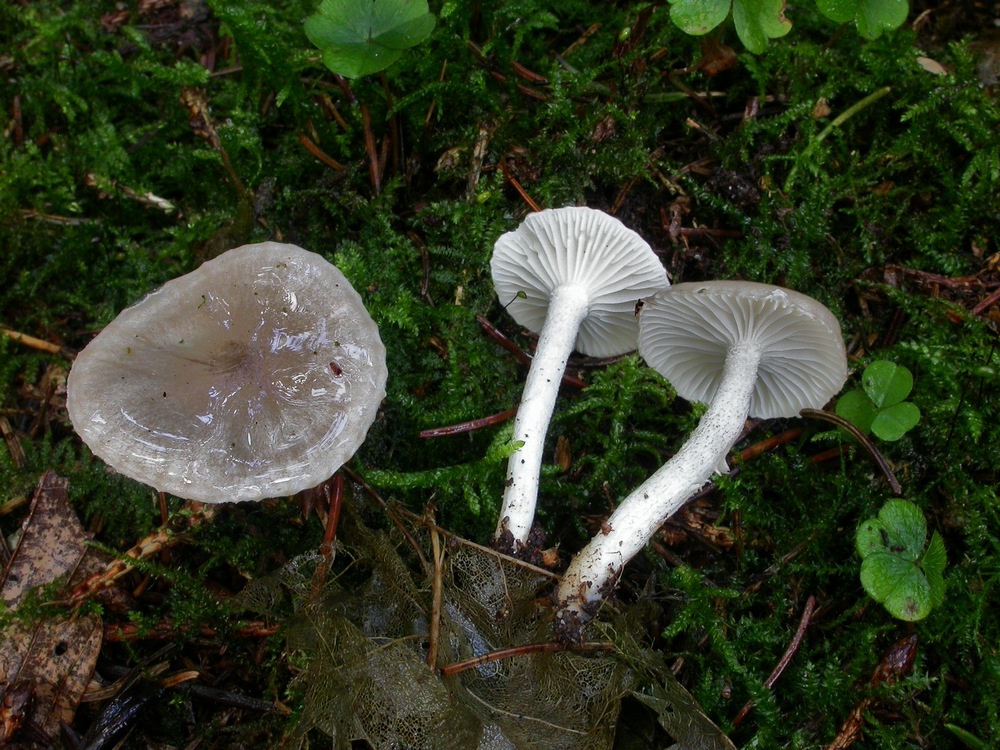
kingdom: Fungi
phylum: Basidiomycota
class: Agaricomycetes
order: Agaricales
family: Hygrophoraceae
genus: Hygrophorus
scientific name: Hygrophorus pustulatus
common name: mørkprikket sneglehat
